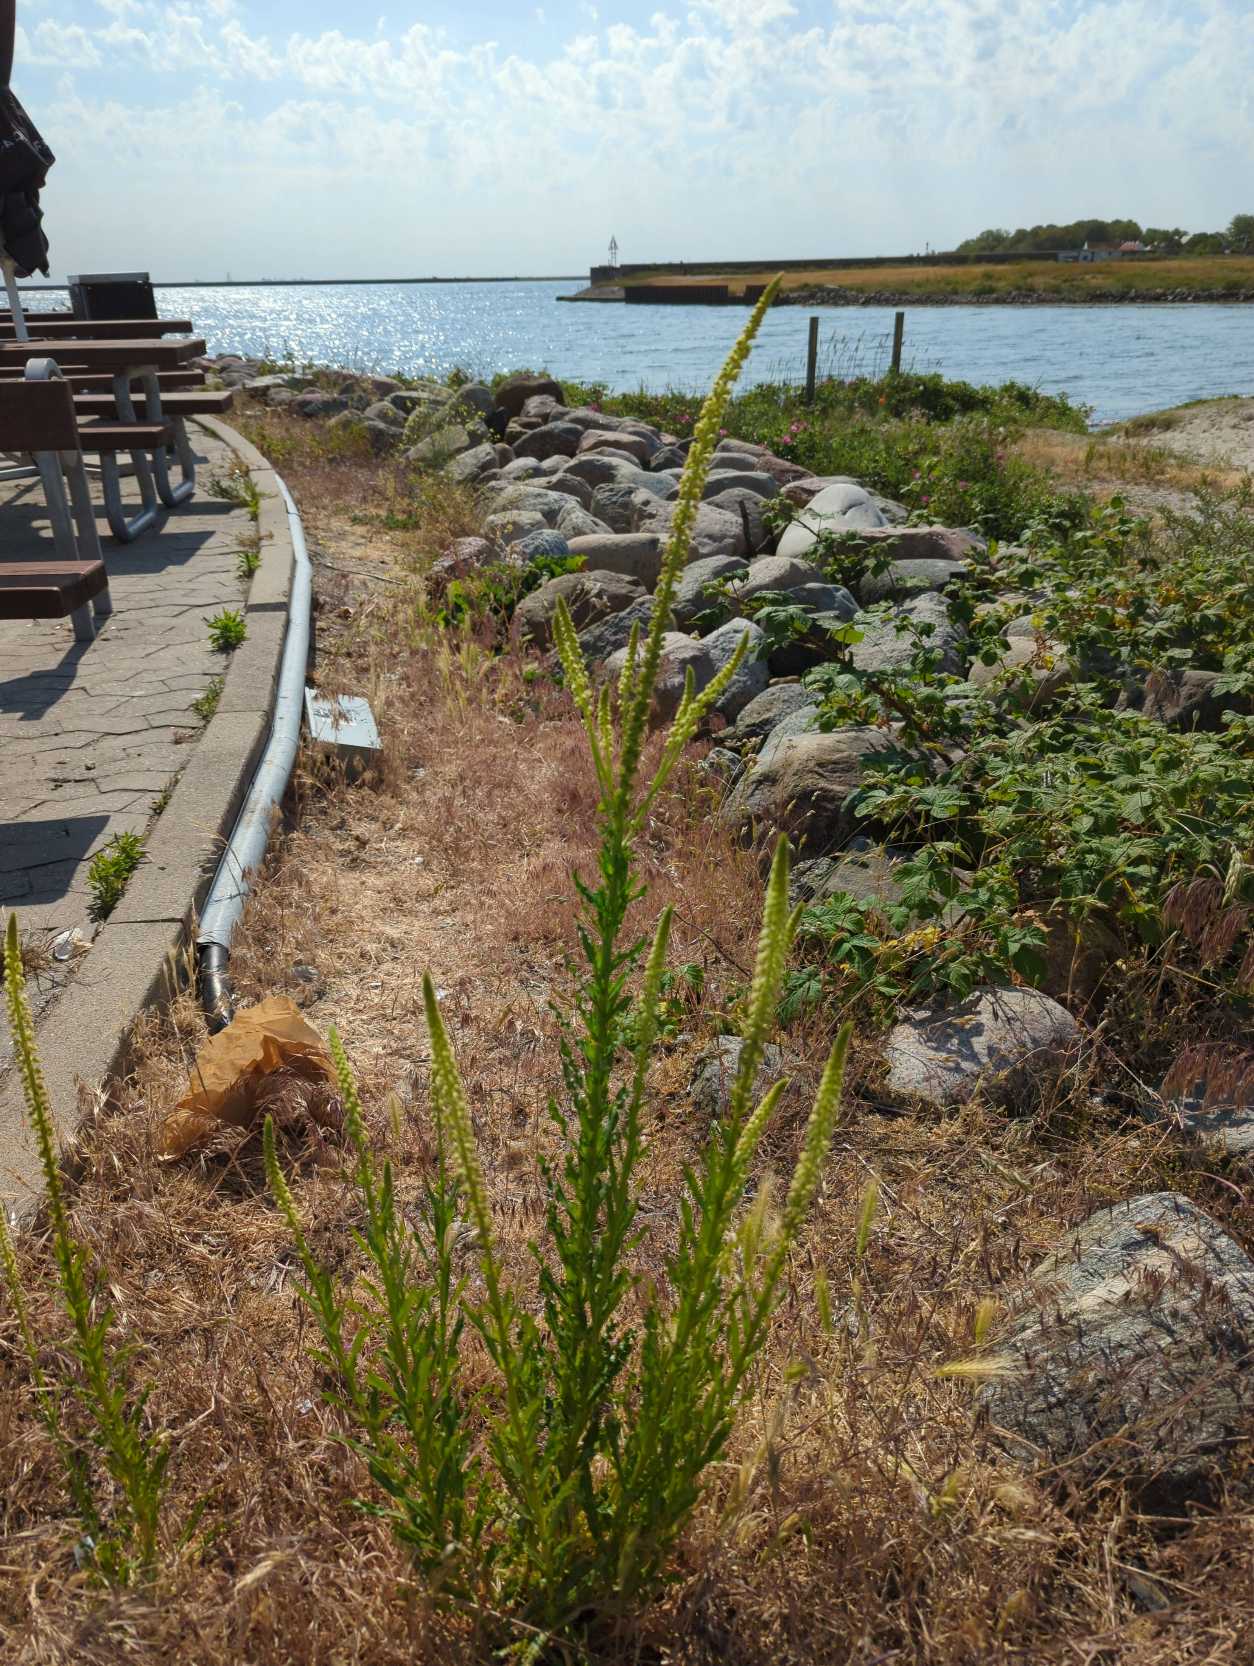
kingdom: Plantae
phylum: Tracheophyta
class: Magnoliopsida
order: Brassicales
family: Resedaceae
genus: Reseda
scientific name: Reseda luteola
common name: Farve-reseda
